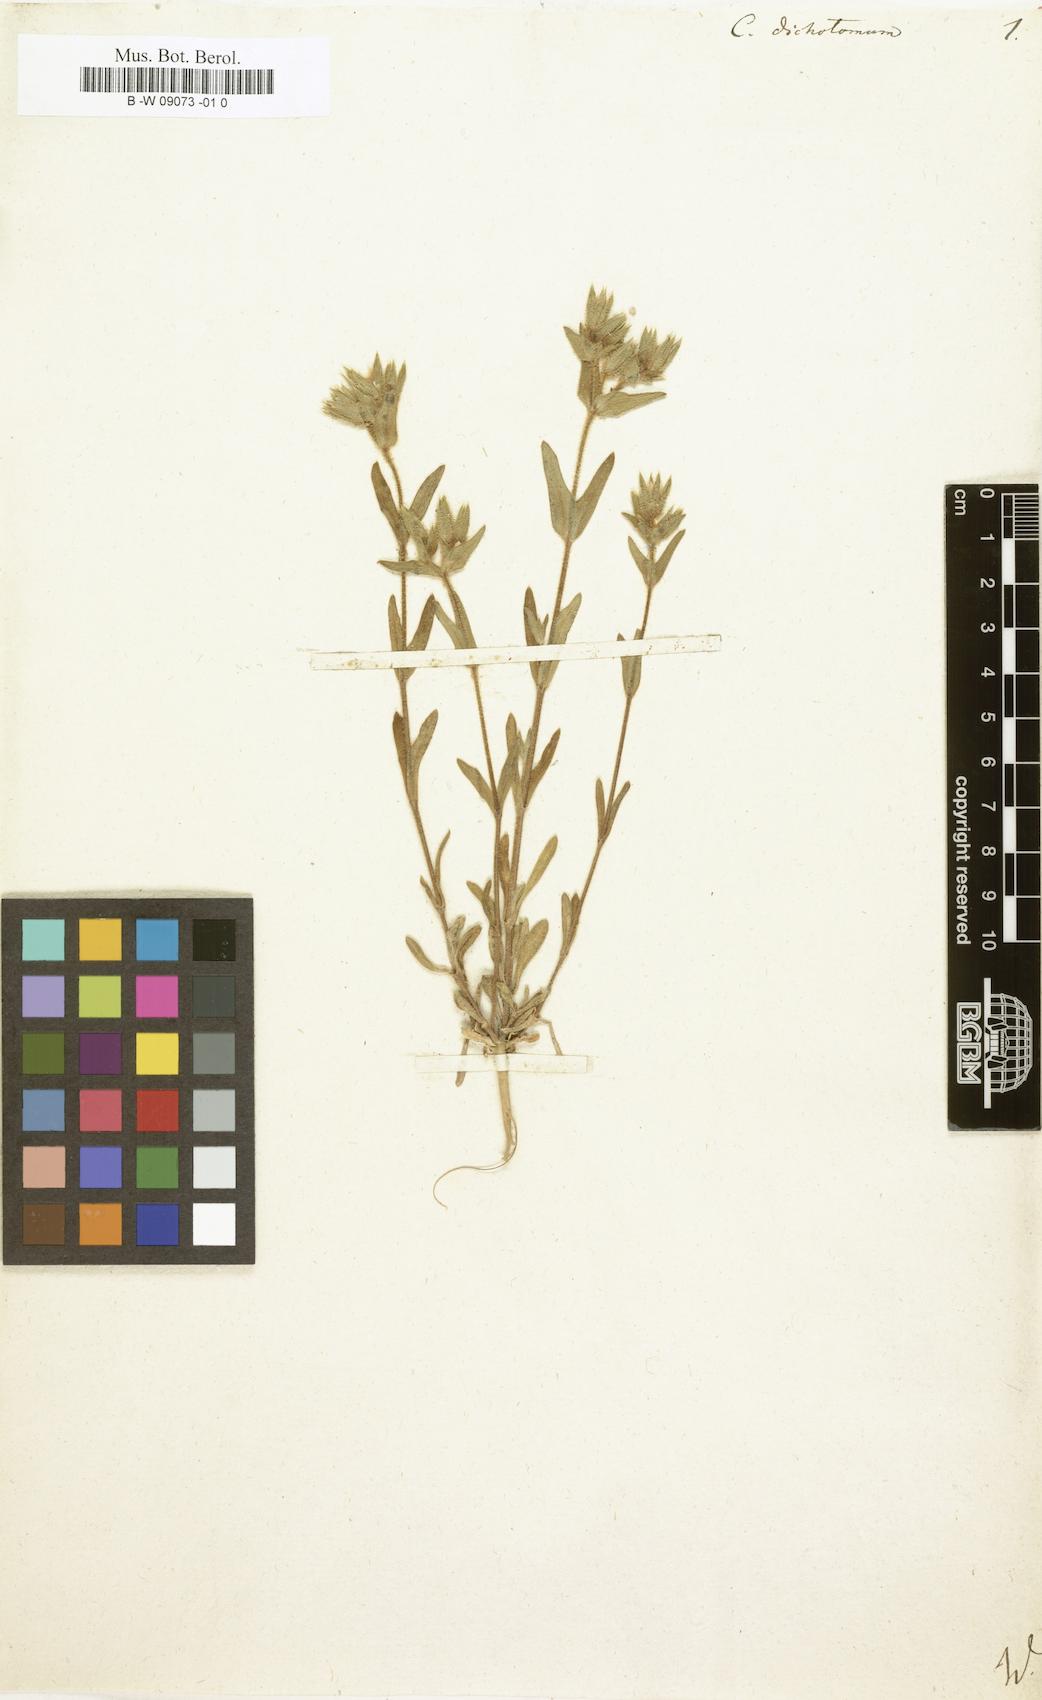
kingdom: Plantae
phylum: Tracheophyta
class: Magnoliopsida
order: Caryophyllales
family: Caryophyllaceae
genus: Cerastium
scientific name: Cerastium dichotomum
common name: Forked chickweed
